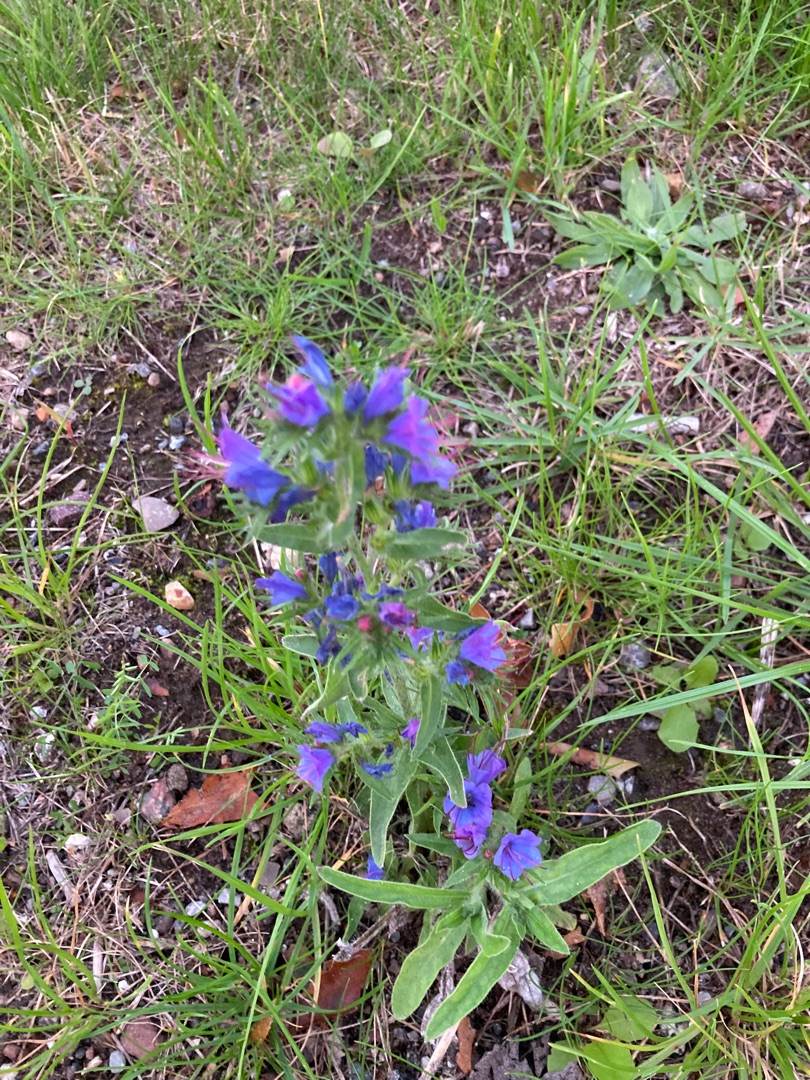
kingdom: Plantae
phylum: Tracheophyta
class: Magnoliopsida
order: Boraginales
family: Boraginaceae
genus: Echium
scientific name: Echium vulgare
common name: Slangehoved
